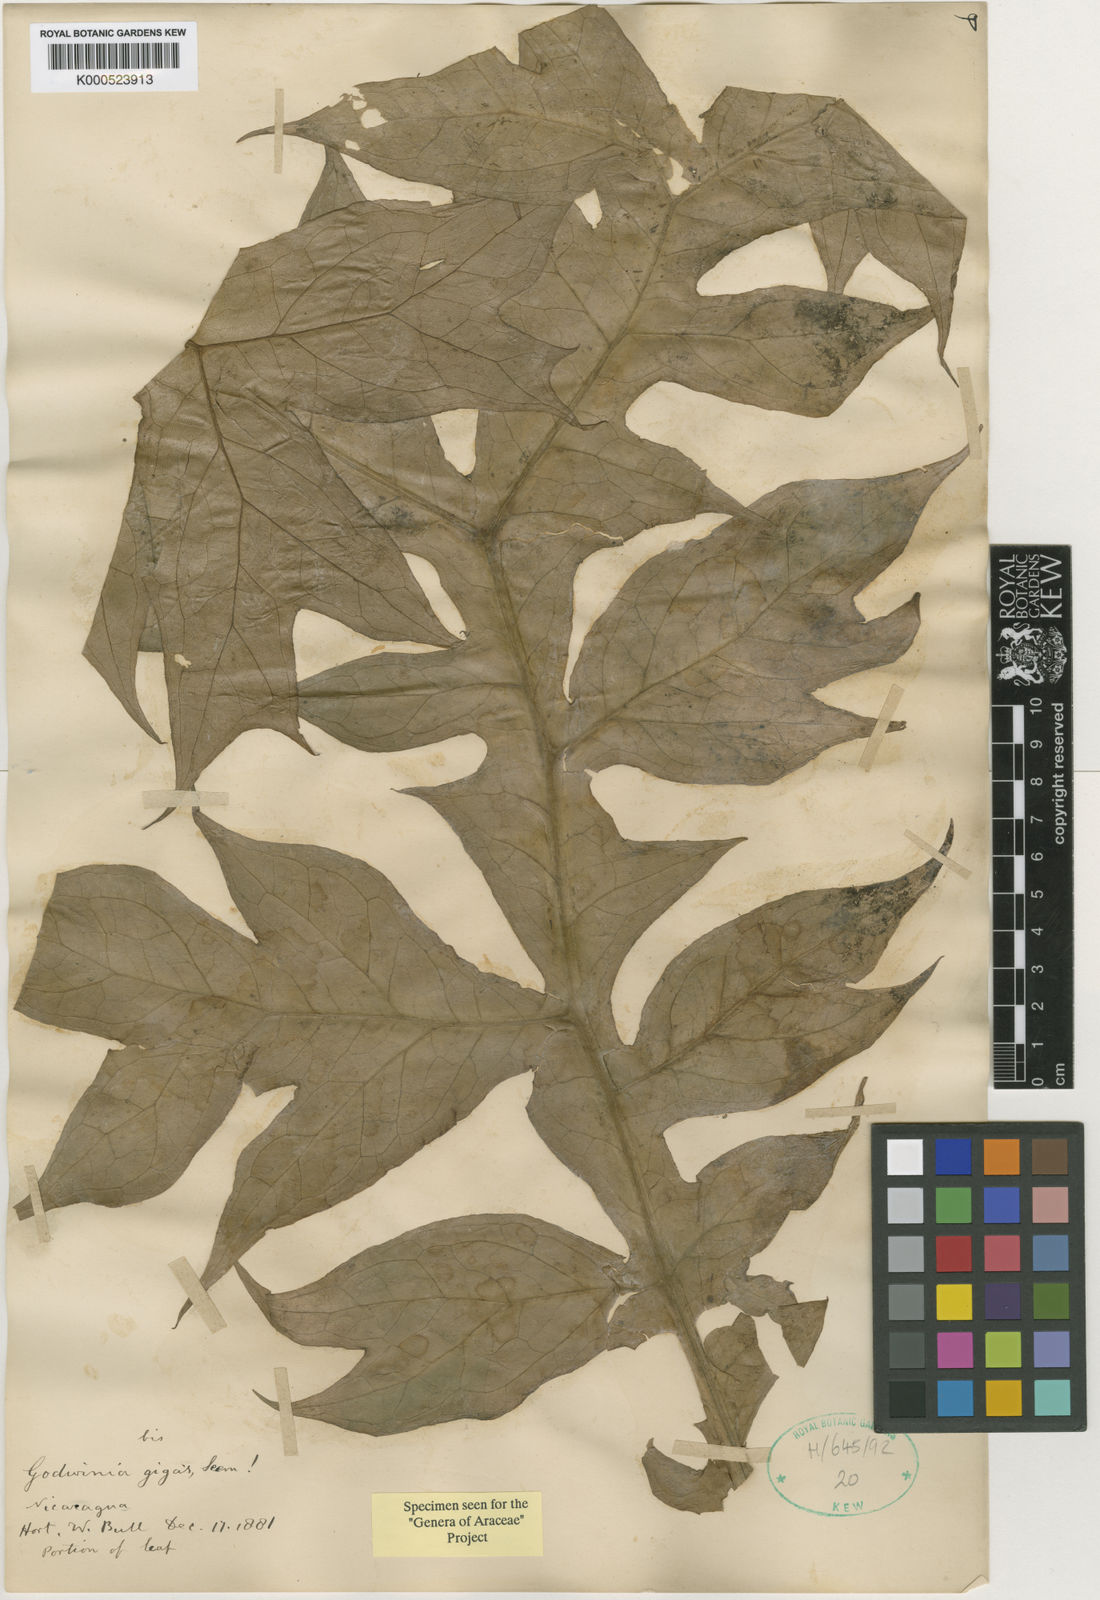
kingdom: Plantae
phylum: Tracheophyta
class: Liliopsida
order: Alismatales
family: Araceae
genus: Dracontium
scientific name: Dracontium gigas
